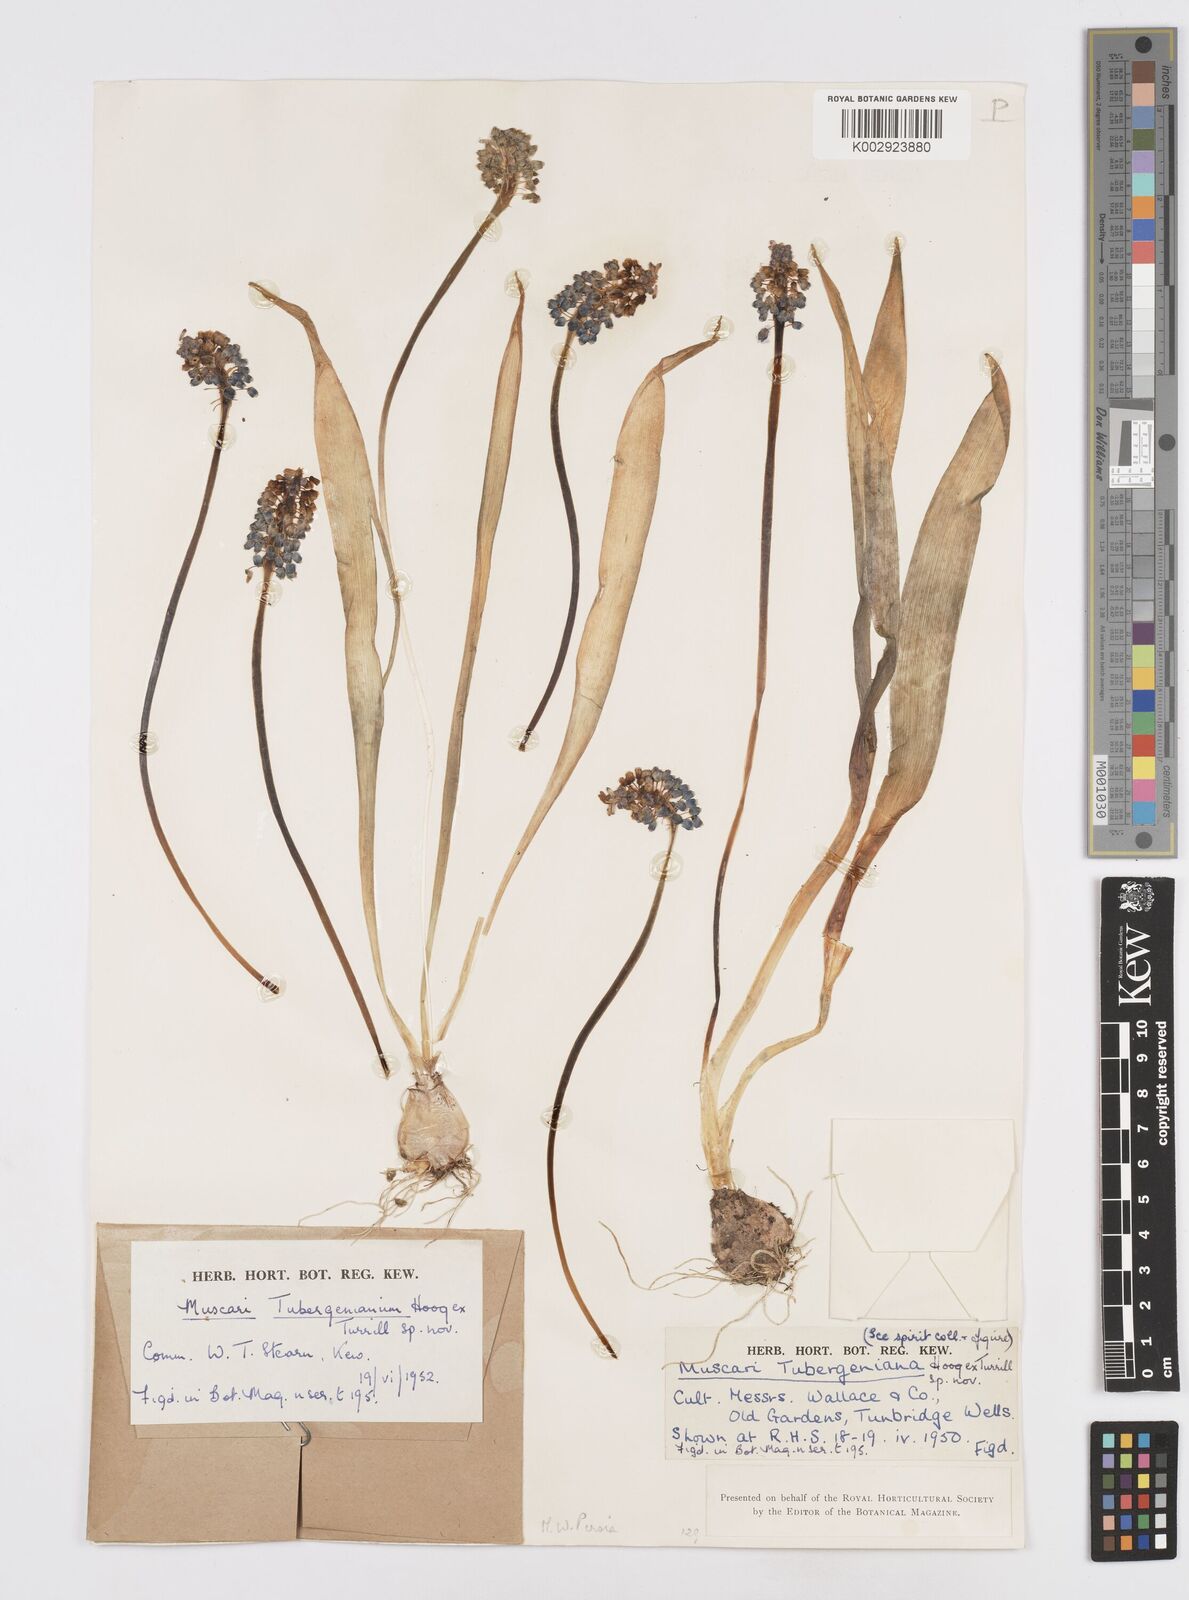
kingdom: Plantae
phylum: Tracheophyta
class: Liliopsida
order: Asparagales
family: Asparagaceae
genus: Muscari
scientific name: Muscari aucheri
